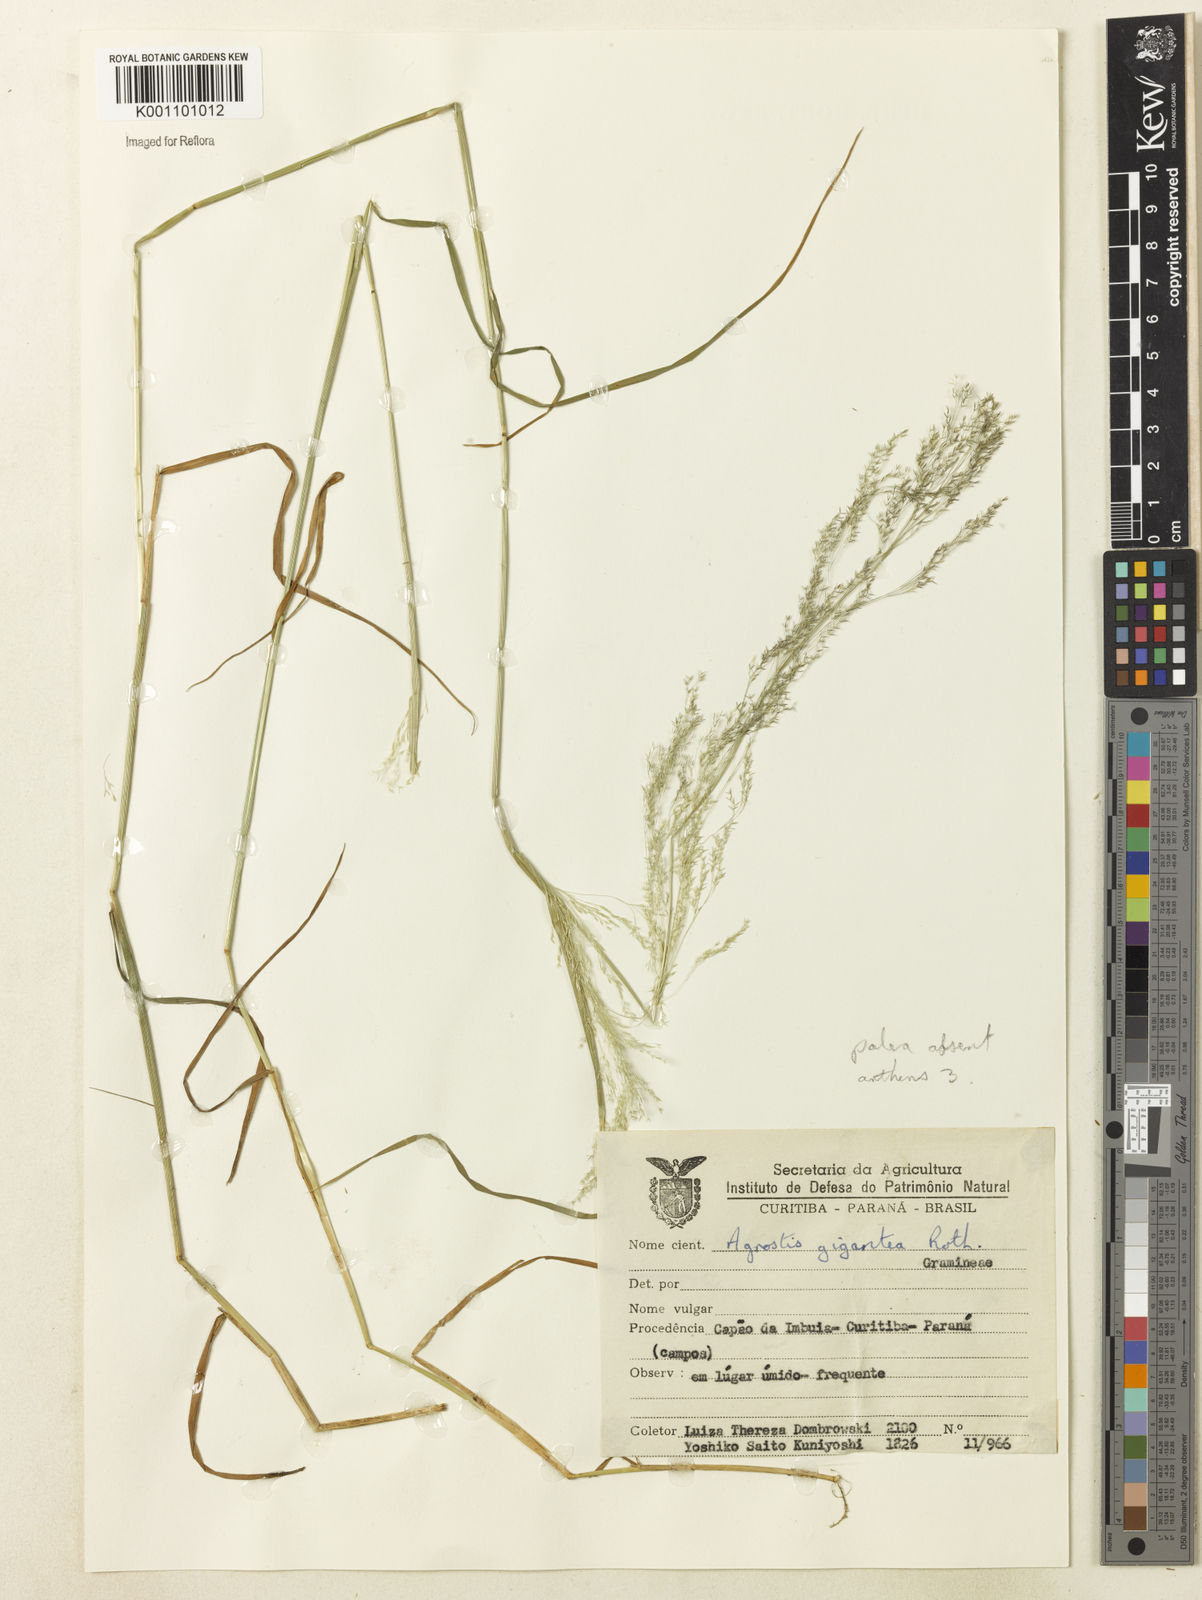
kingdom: Plantae
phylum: Tracheophyta
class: Liliopsida
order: Poales
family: Poaceae
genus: Agrostis
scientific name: Agrostis
